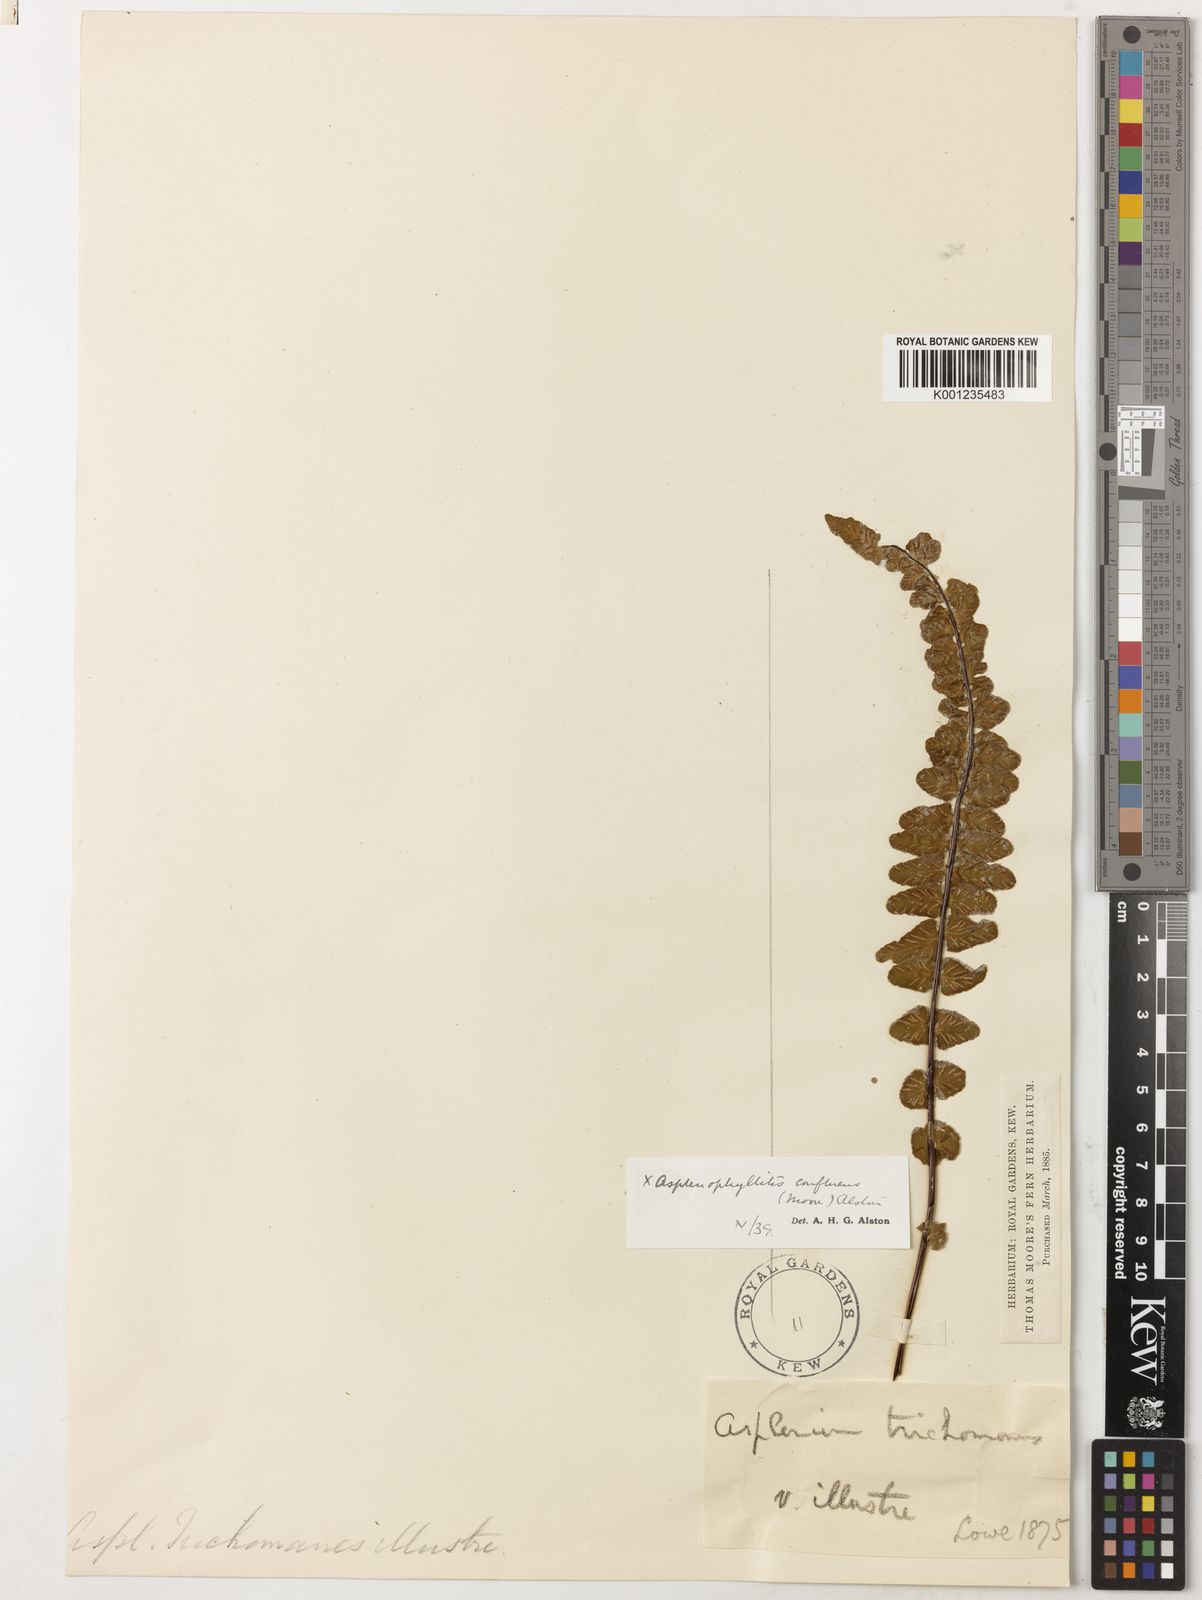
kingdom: Plantae
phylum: Tracheophyta
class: Polypodiopsida
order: Polypodiales
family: Aspleniaceae
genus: Asplenium
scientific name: Asplenium lawalreei
